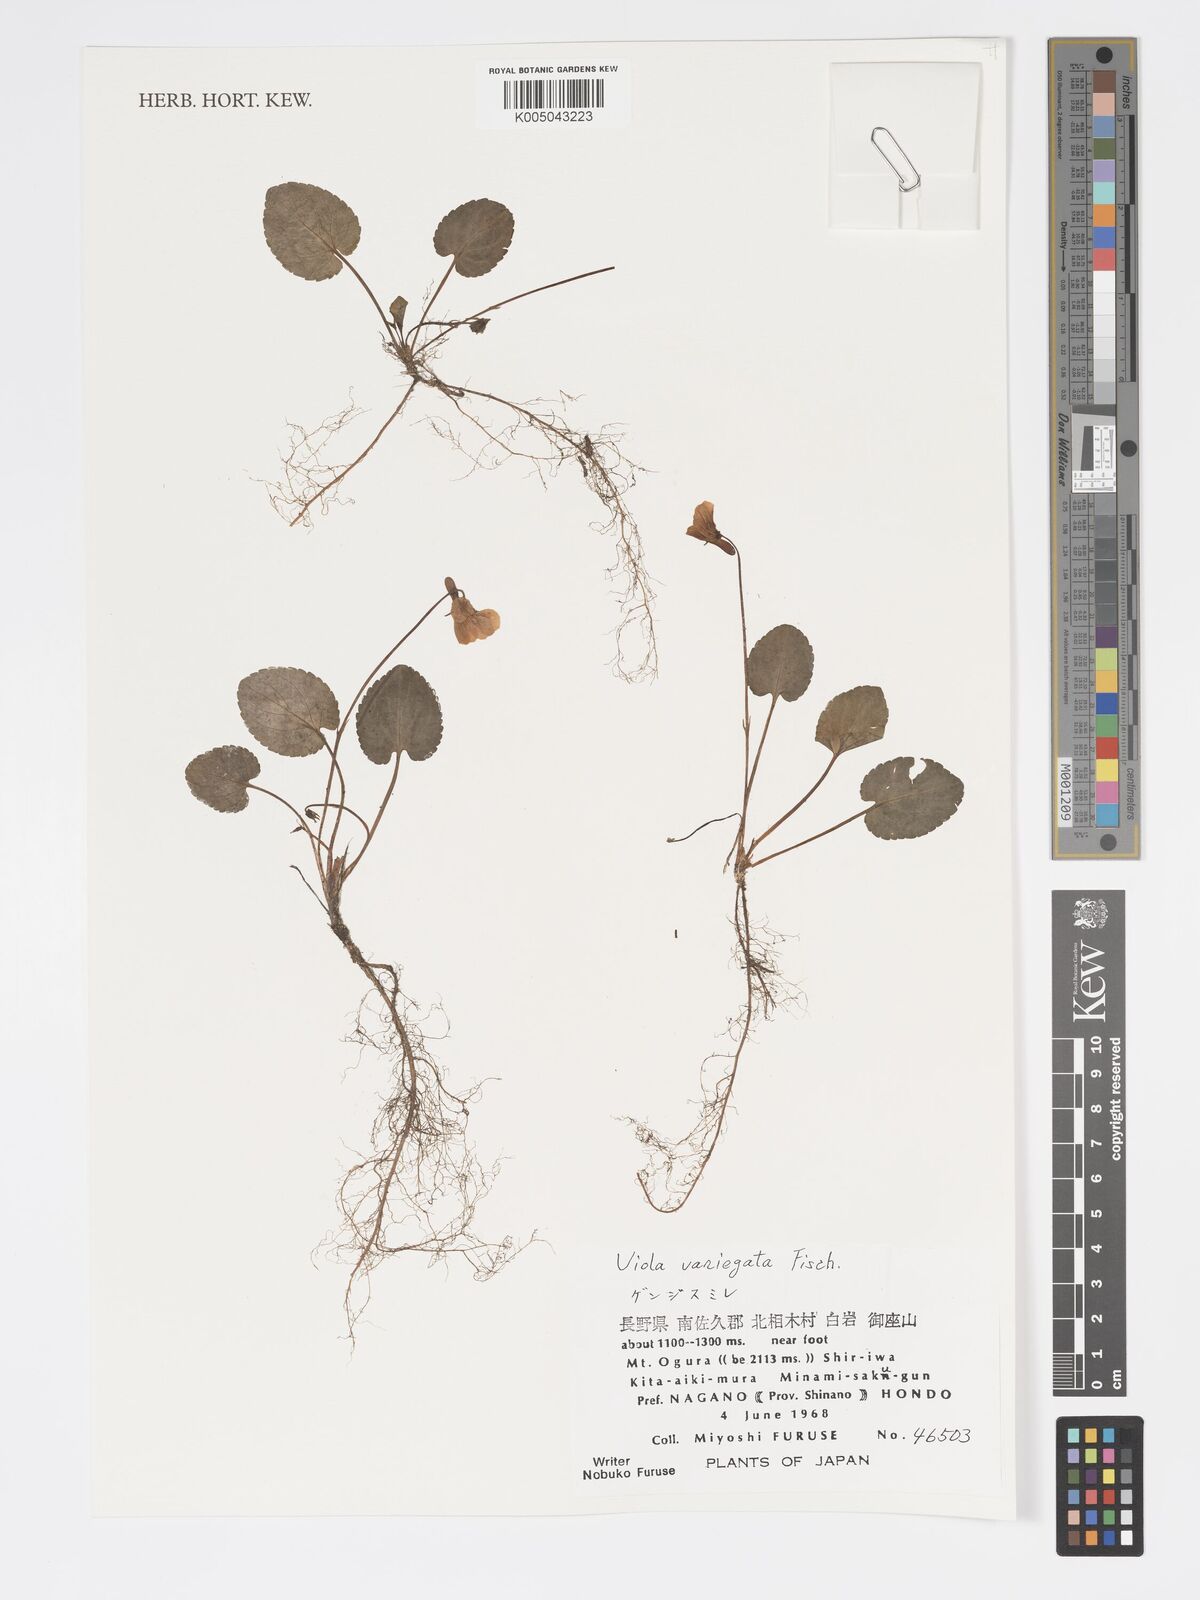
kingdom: Plantae
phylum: Tracheophyta
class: Magnoliopsida
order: Malpighiales
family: Violaceae
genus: Viola
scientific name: Viola vaginata
